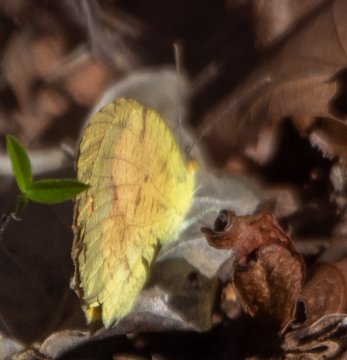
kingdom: Animalia
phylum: Arthropoda
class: Insecta
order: Lepidoptera
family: Pieridae
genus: Abaeis
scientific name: Abaeis nicippe
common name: Sleepy Orange
